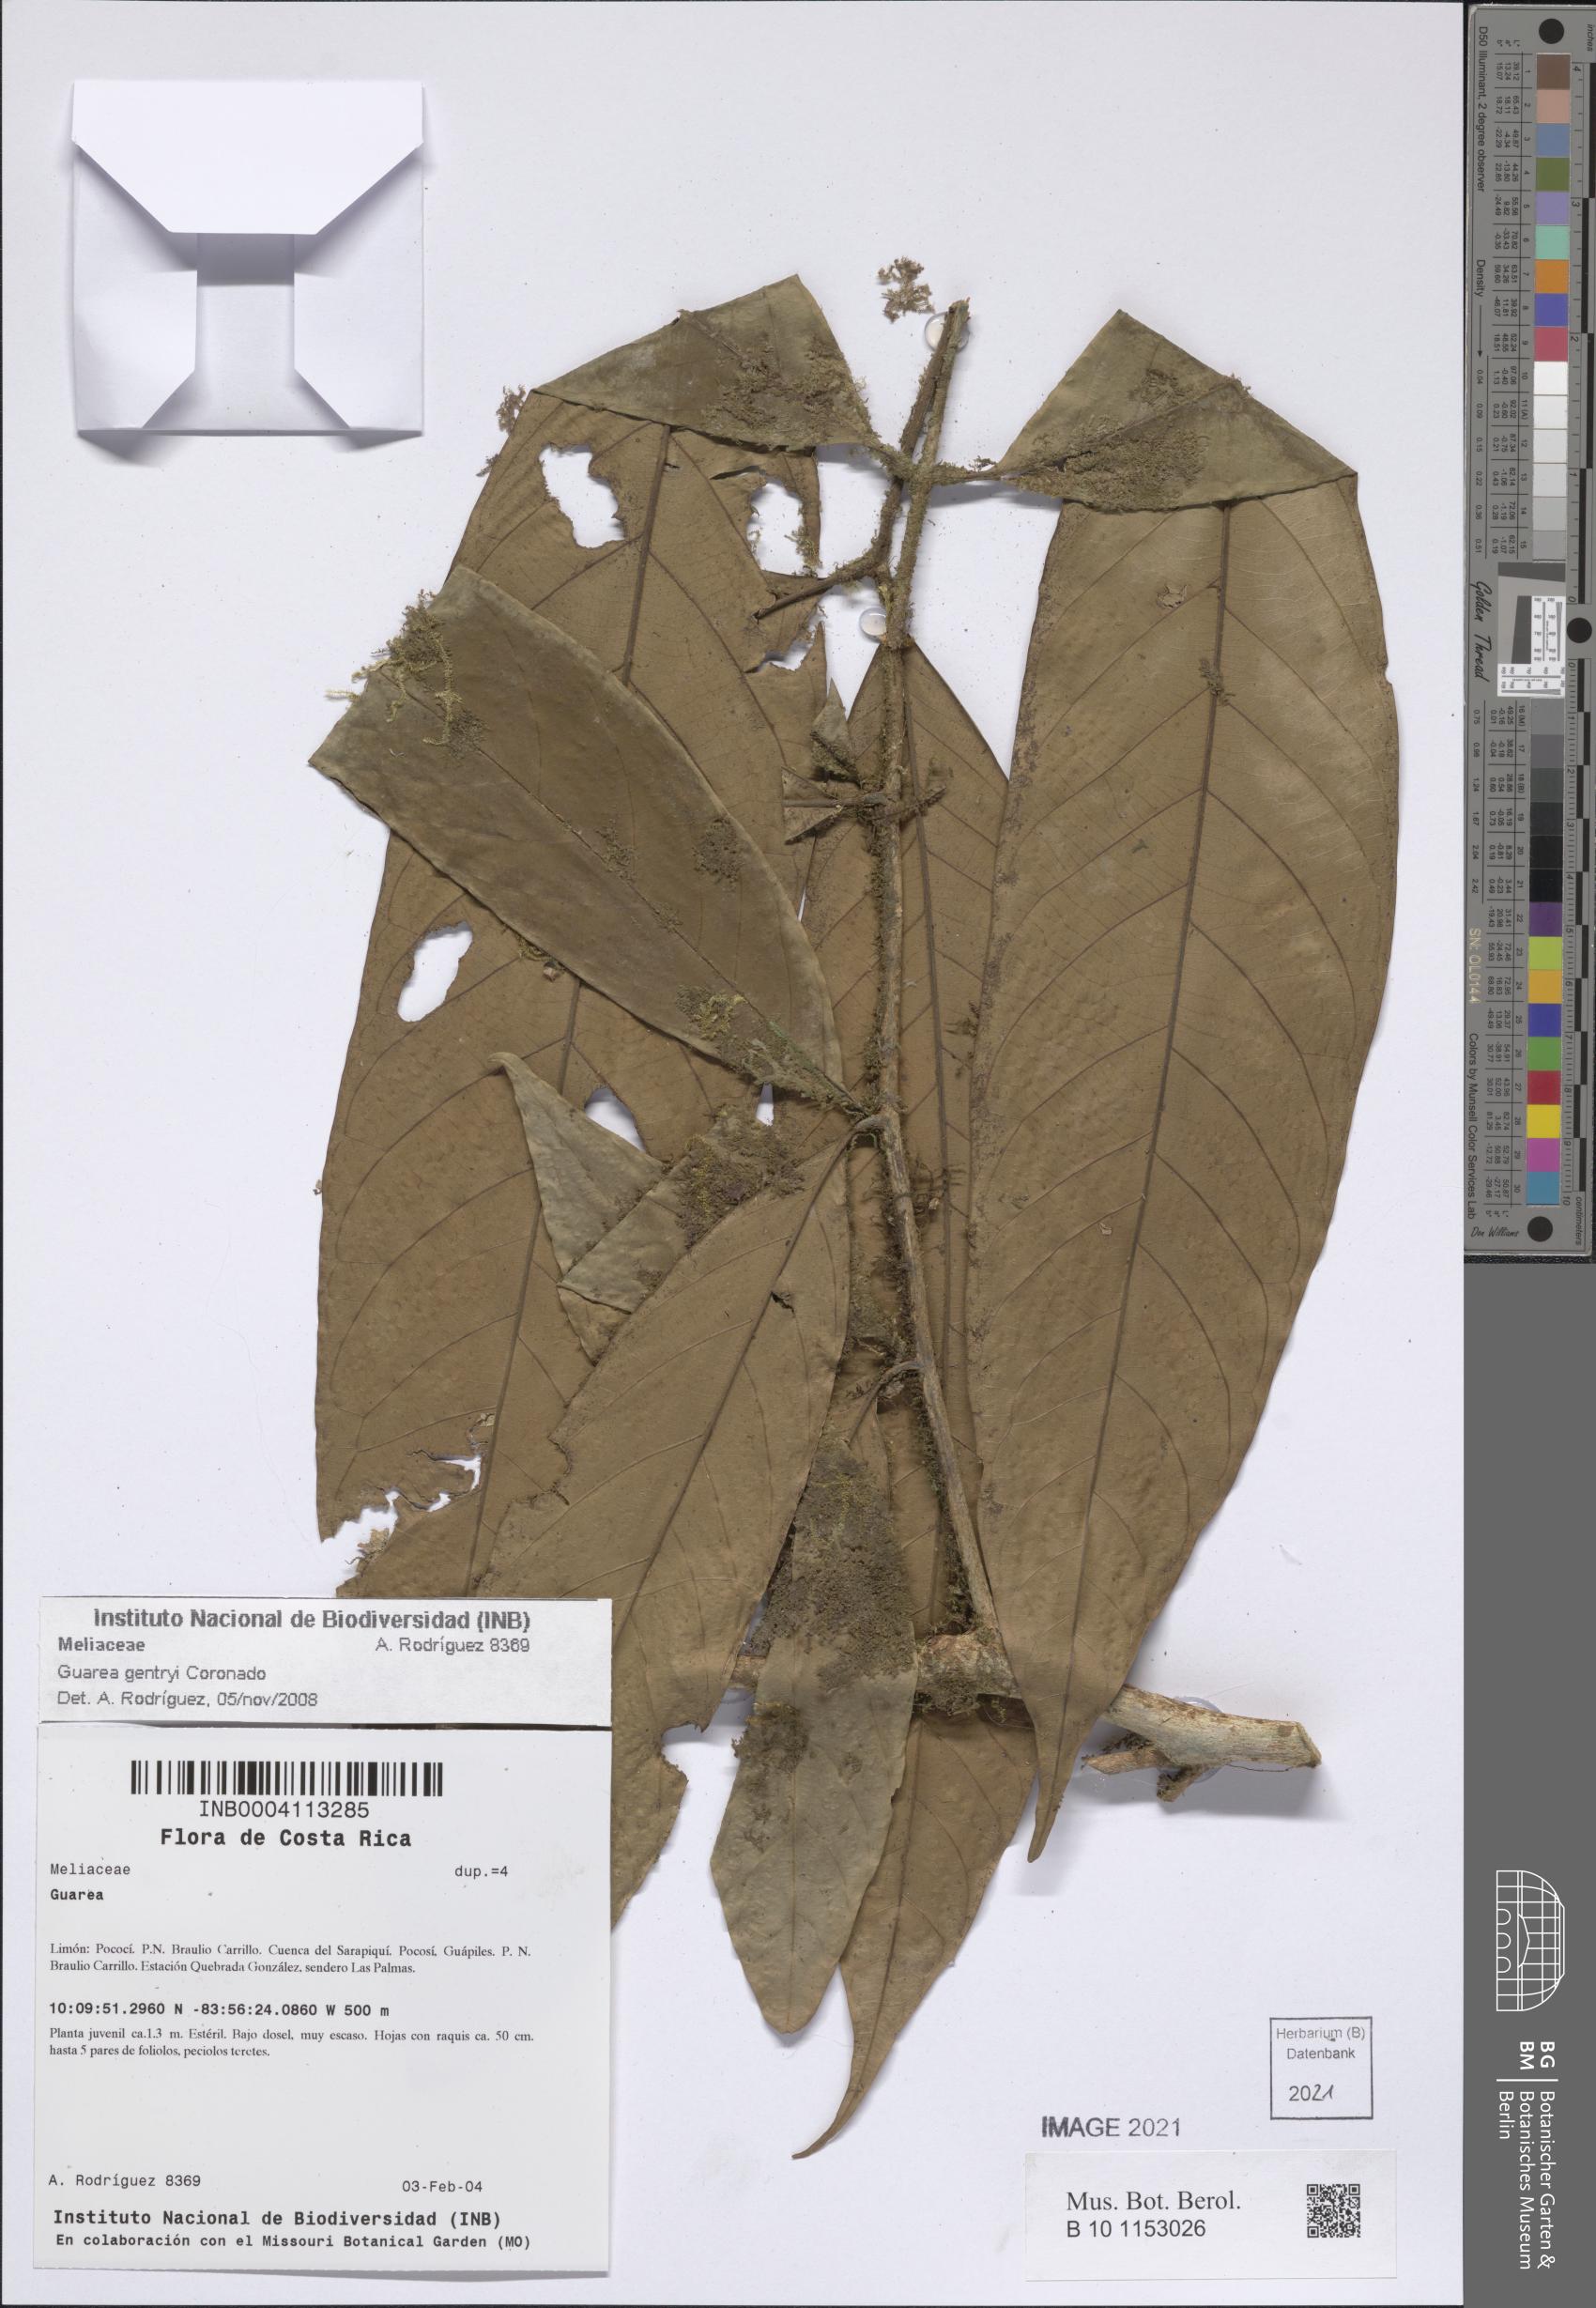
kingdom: Plantae
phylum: Tracheophyta
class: Magnoliopsida
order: Sapindales
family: Meliaceae
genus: Guarea
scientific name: Guarea gentryi
